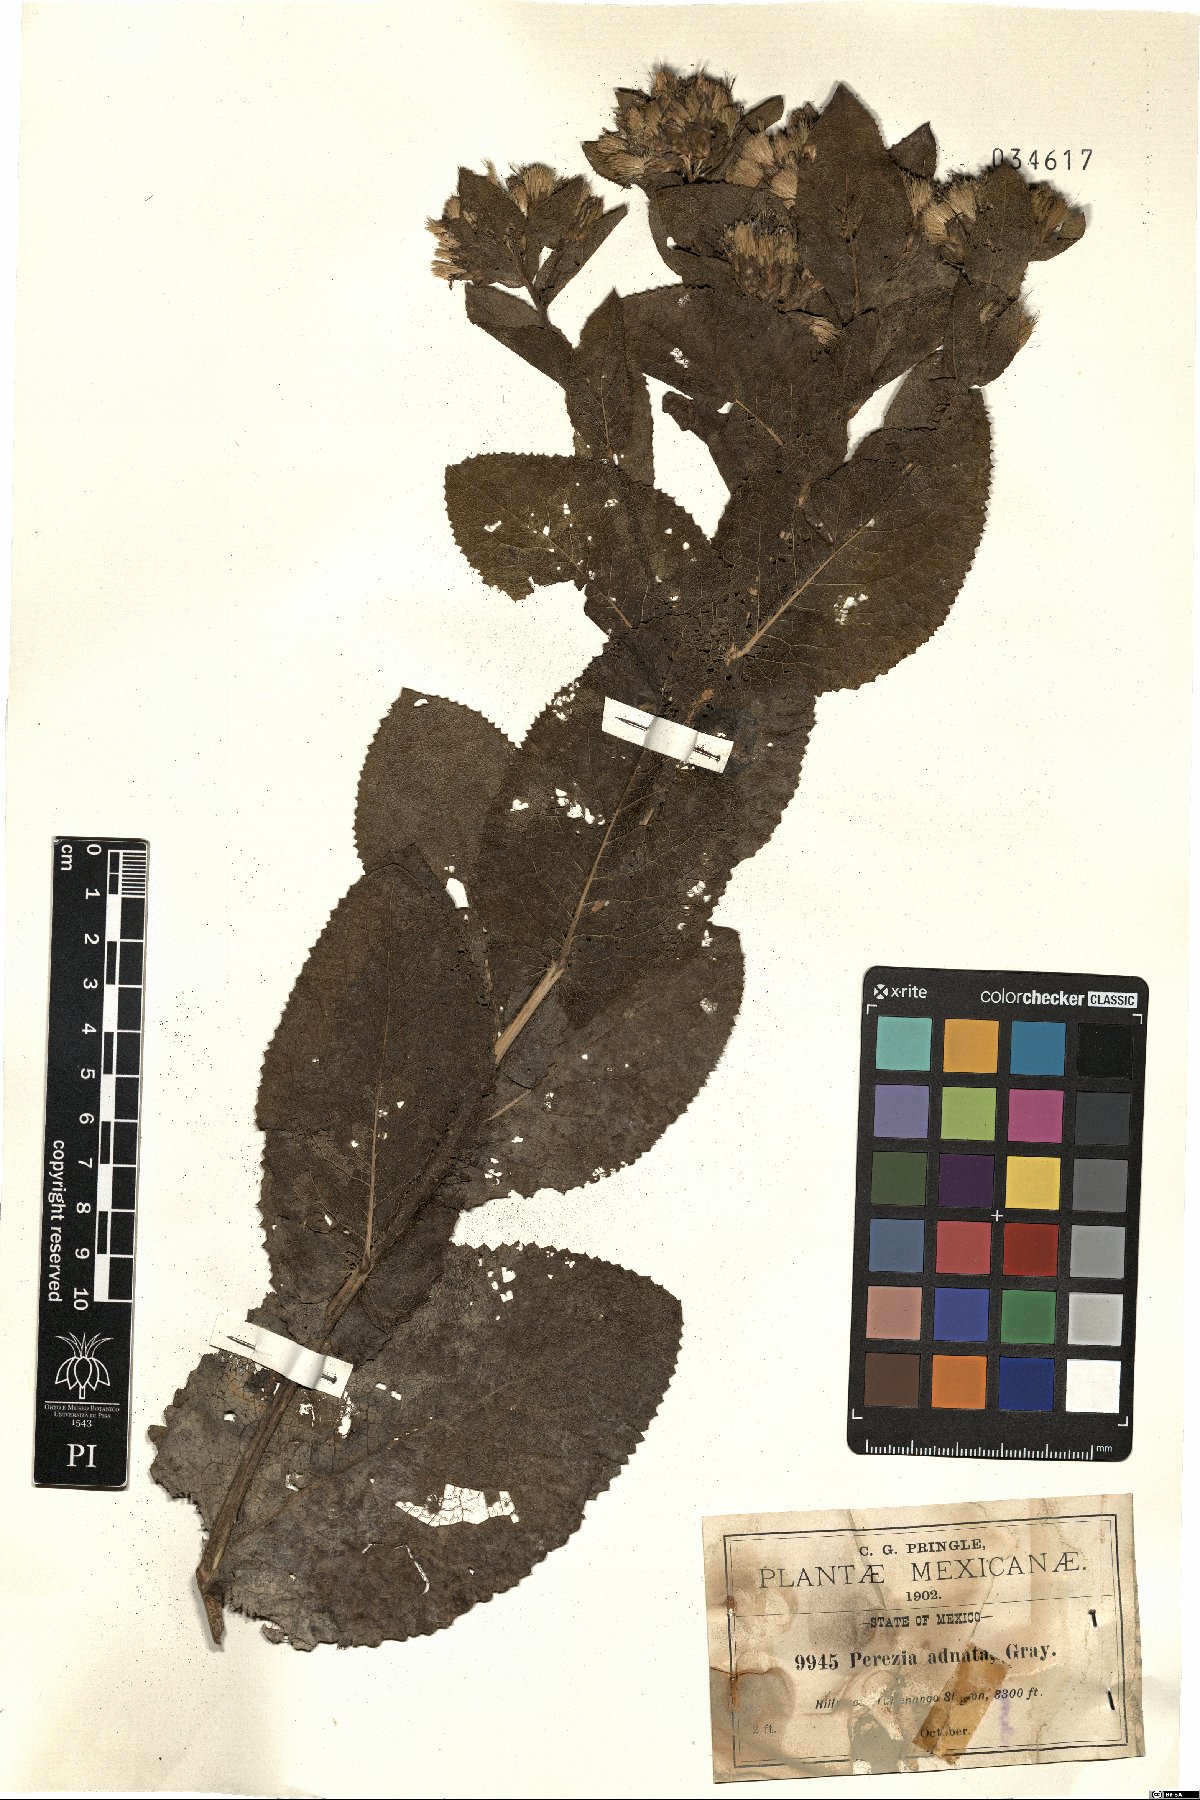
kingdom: Plantae
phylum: Tracheophyta
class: Magnoliopsida
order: Asterales
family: Asteraceae
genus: Acourtia
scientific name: Acourtia humboldtii
